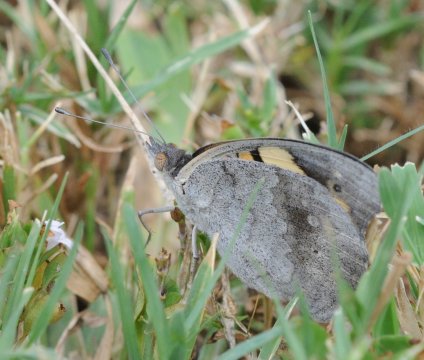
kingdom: Animalia
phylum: Arthropoda
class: Insecta
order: Lepidoptera
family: Nymphalidae
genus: Junonia
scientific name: Junonia hierta
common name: Yellow Pansy
